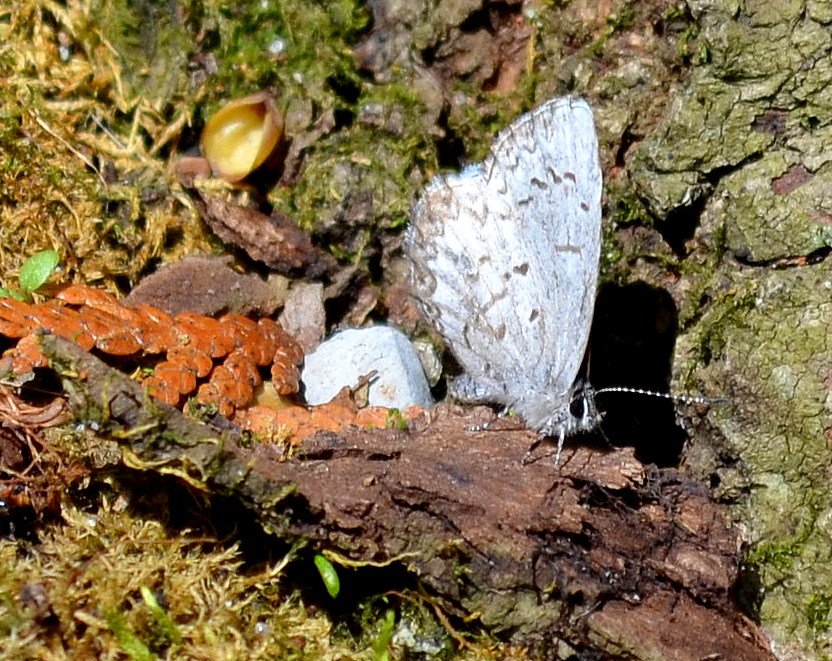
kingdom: Animalia
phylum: Arthropoda
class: Insecta
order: Lepidoptera
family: Lycaenidae
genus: Celastrina
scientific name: Celastrina lucia
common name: Northern Spring Azure
